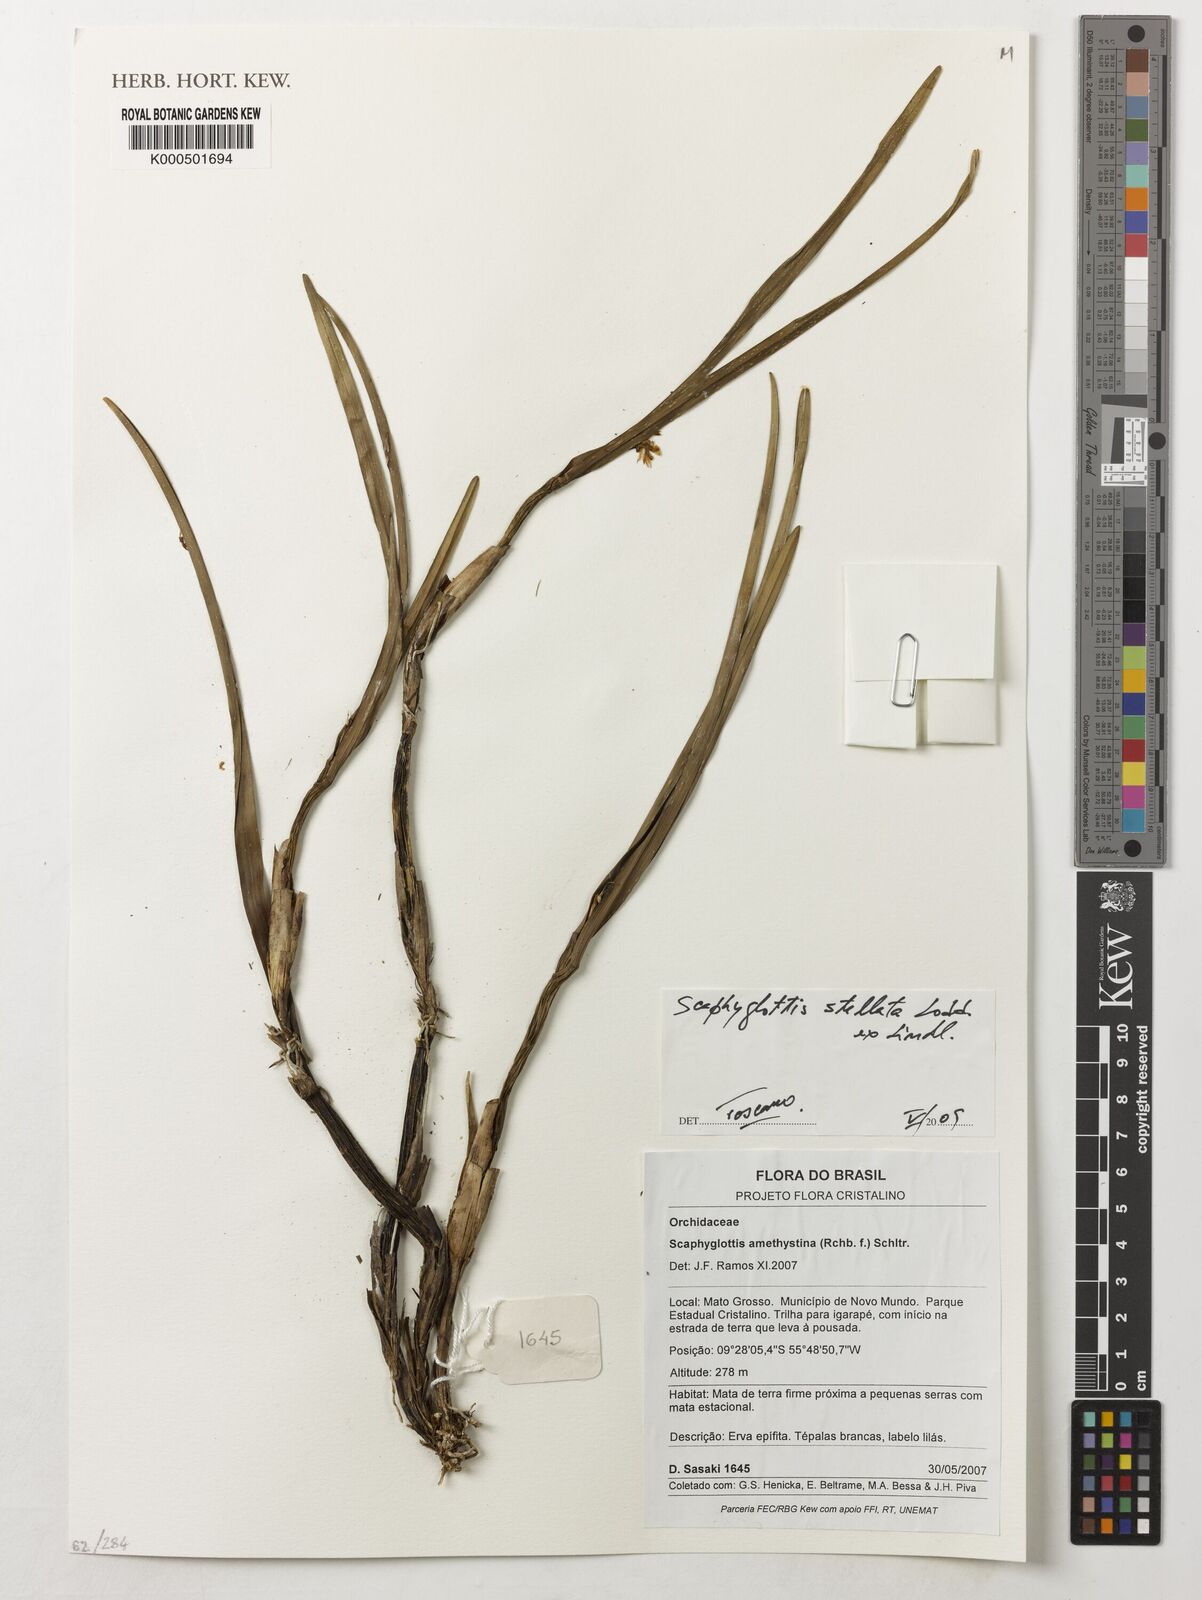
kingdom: Plantae
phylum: Tracheophyta
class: Liliopsida
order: Asparagales
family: Orchidaceae
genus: Scaphyglottis
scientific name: Scaphyglottis stellata
